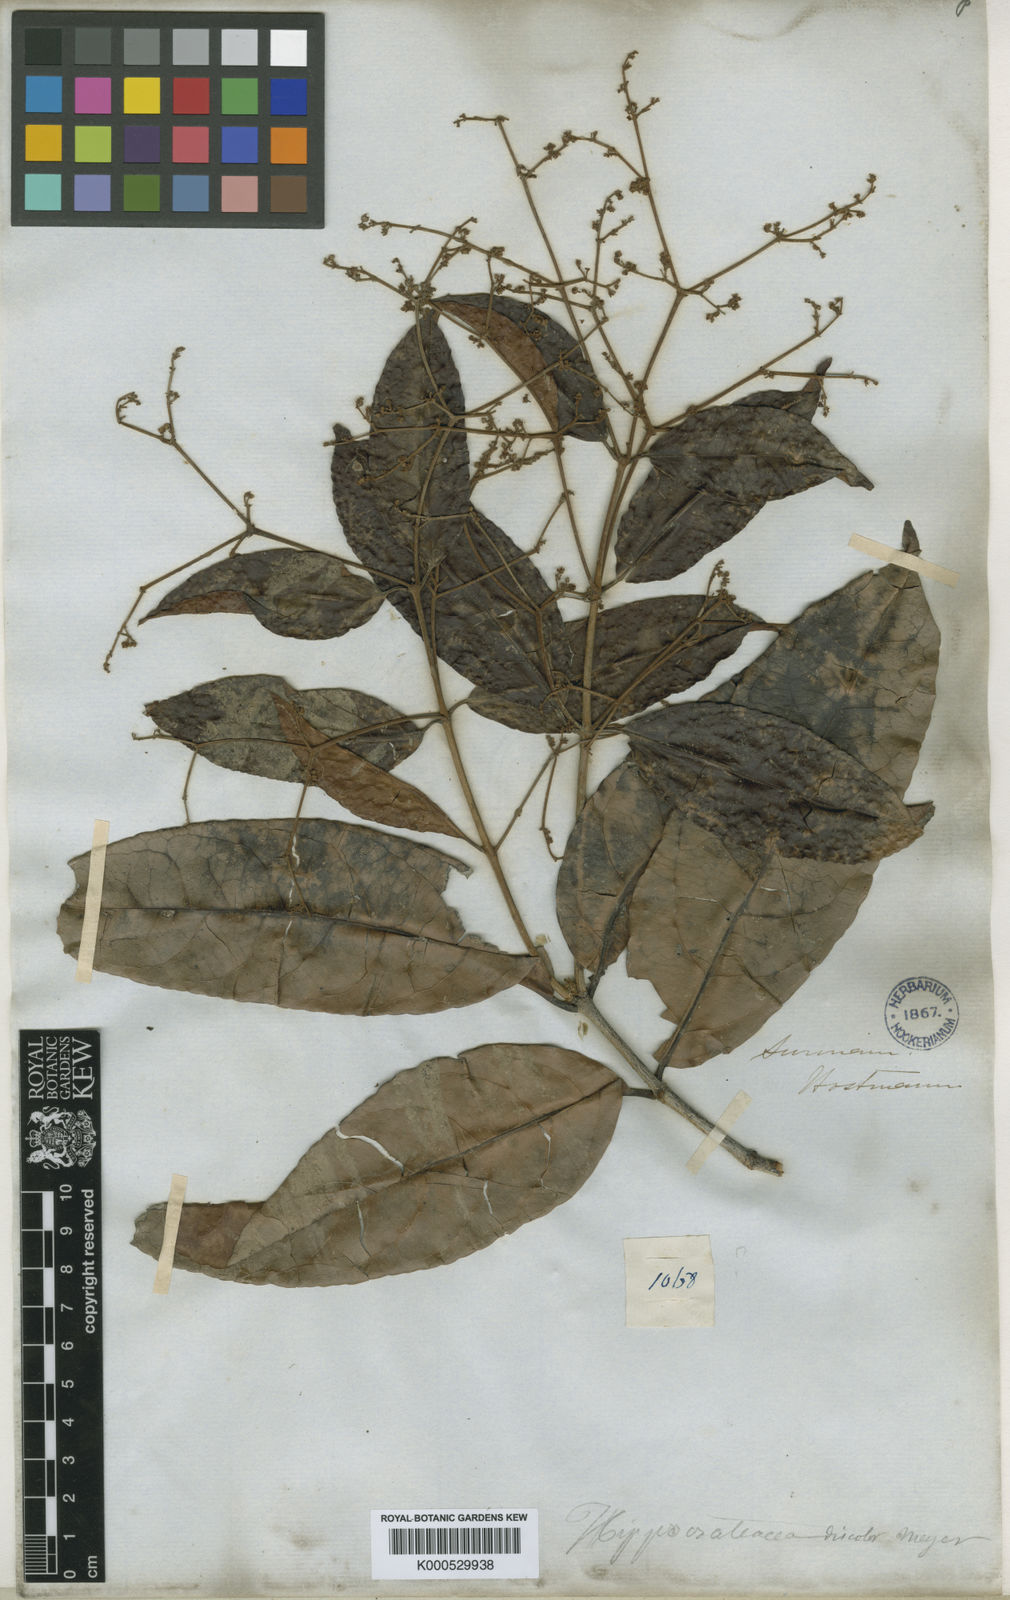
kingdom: Plantae
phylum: Tracheophyta
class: Magnoliopsida
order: Celastrales
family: Celastraceae
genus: Hippocratea
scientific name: Hippocratea volubilis
